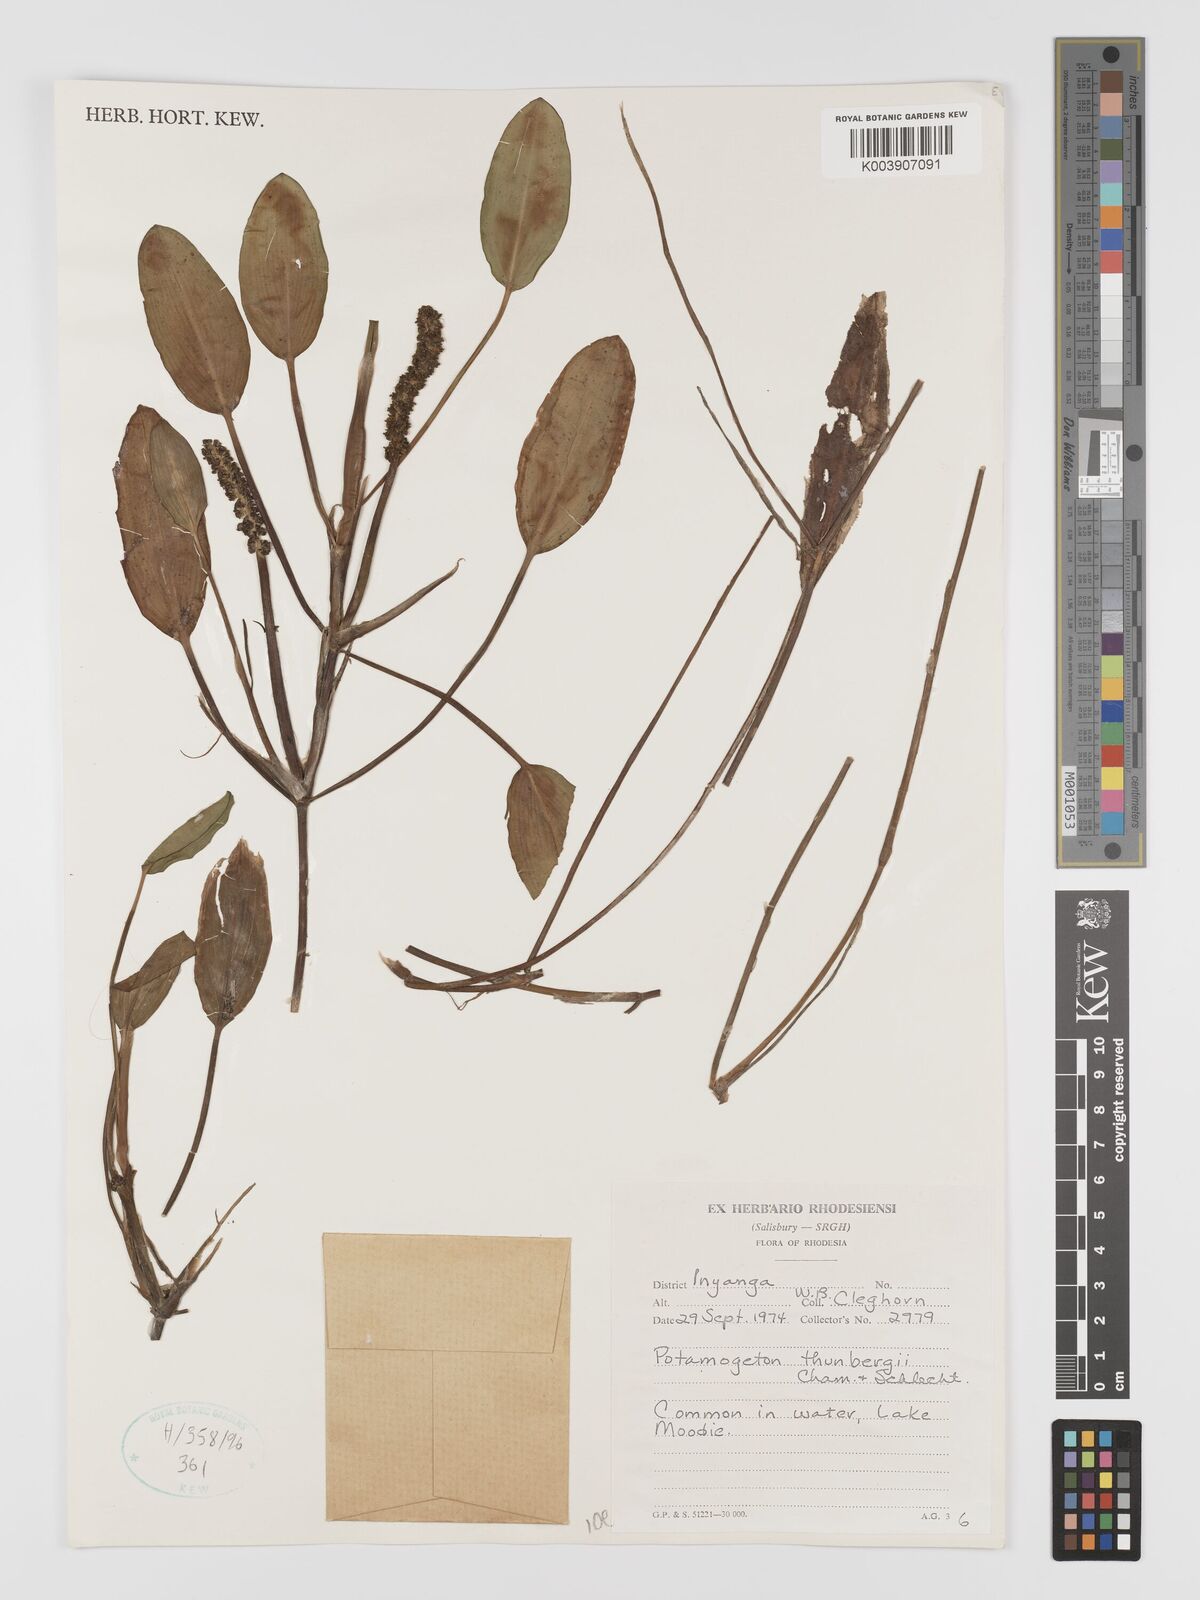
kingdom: Plantae
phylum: Tracheophyta
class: Liliopsida
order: Alismatales
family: Potamogetonaceae
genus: Potamogeton
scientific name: Potamogeton nodosus
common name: Loddon pondweed
